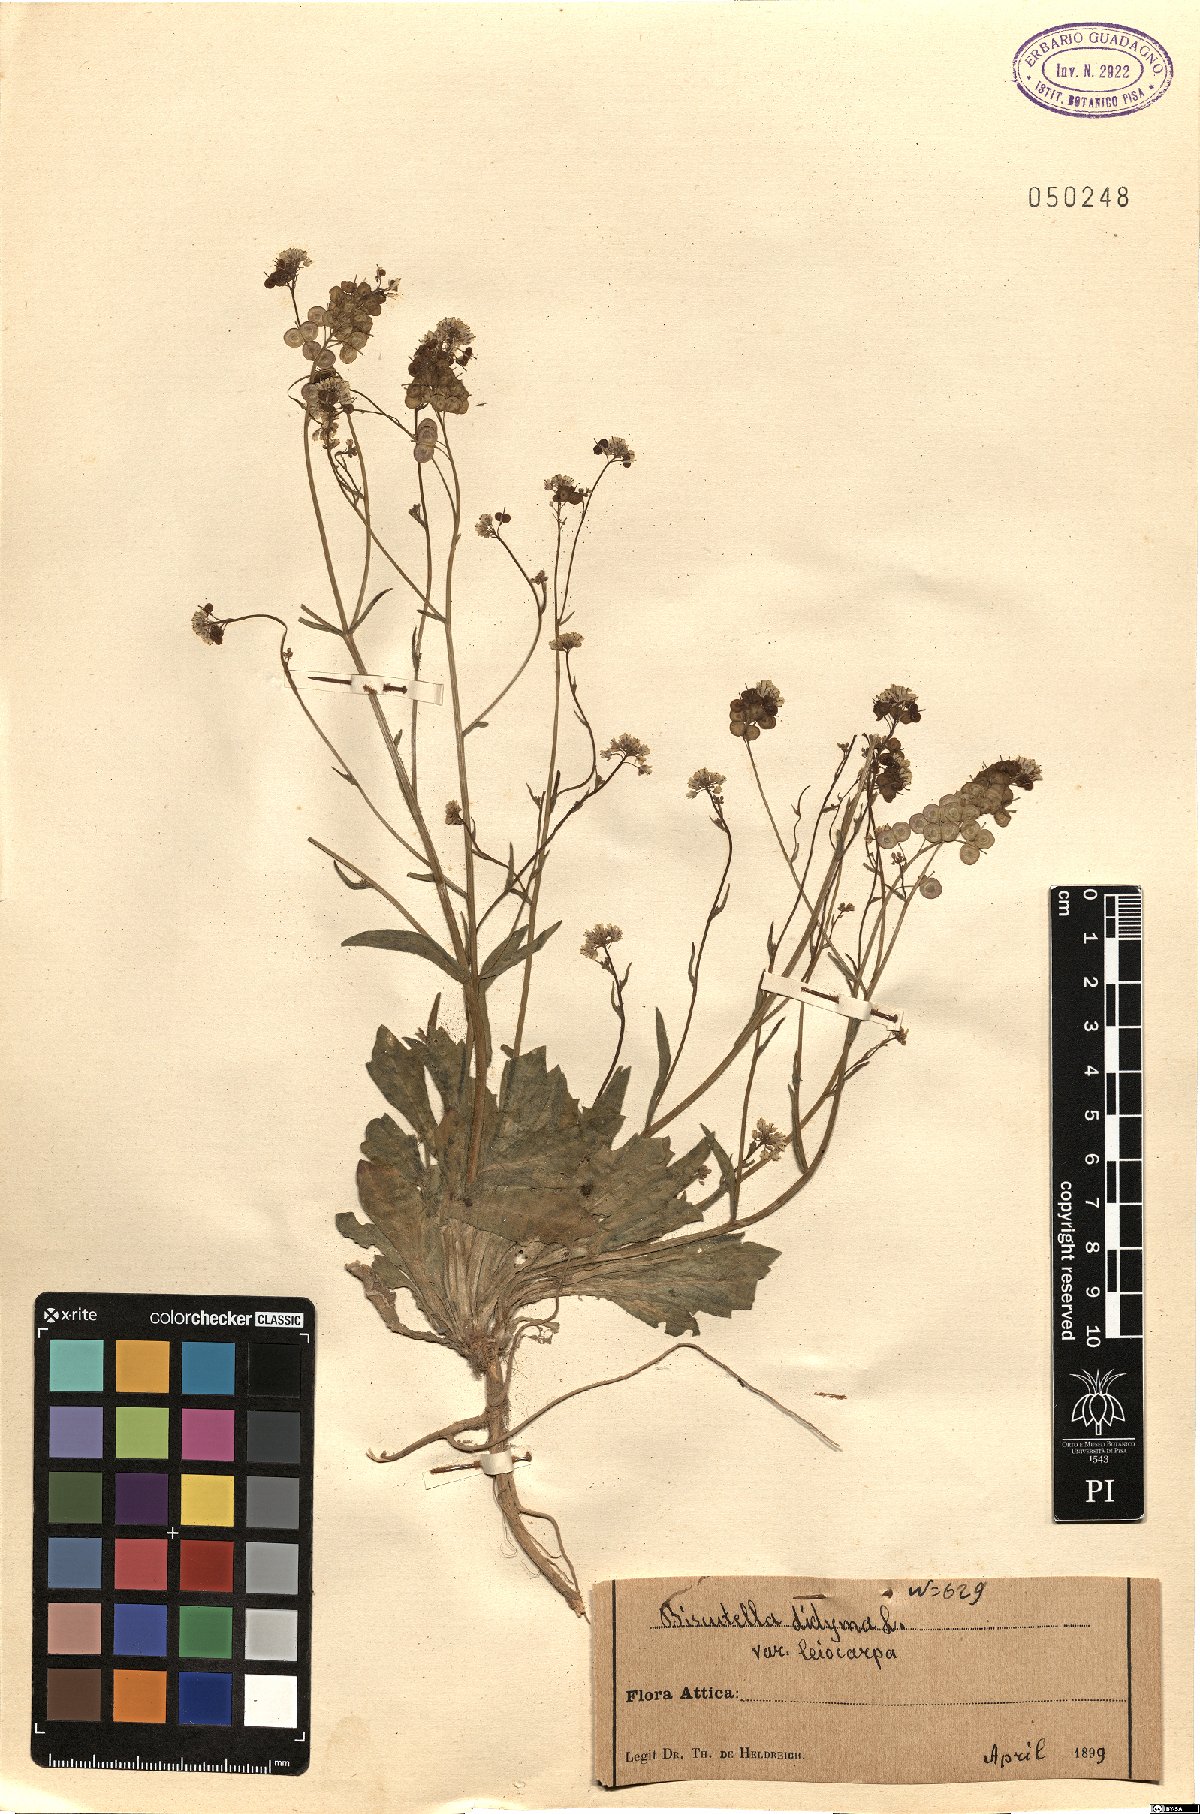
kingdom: Plantae
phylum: Tracheophyta
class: Magnoliopsida
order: Brassicales
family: Brassicaceae
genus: Biscutella
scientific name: Biscutella didyma
